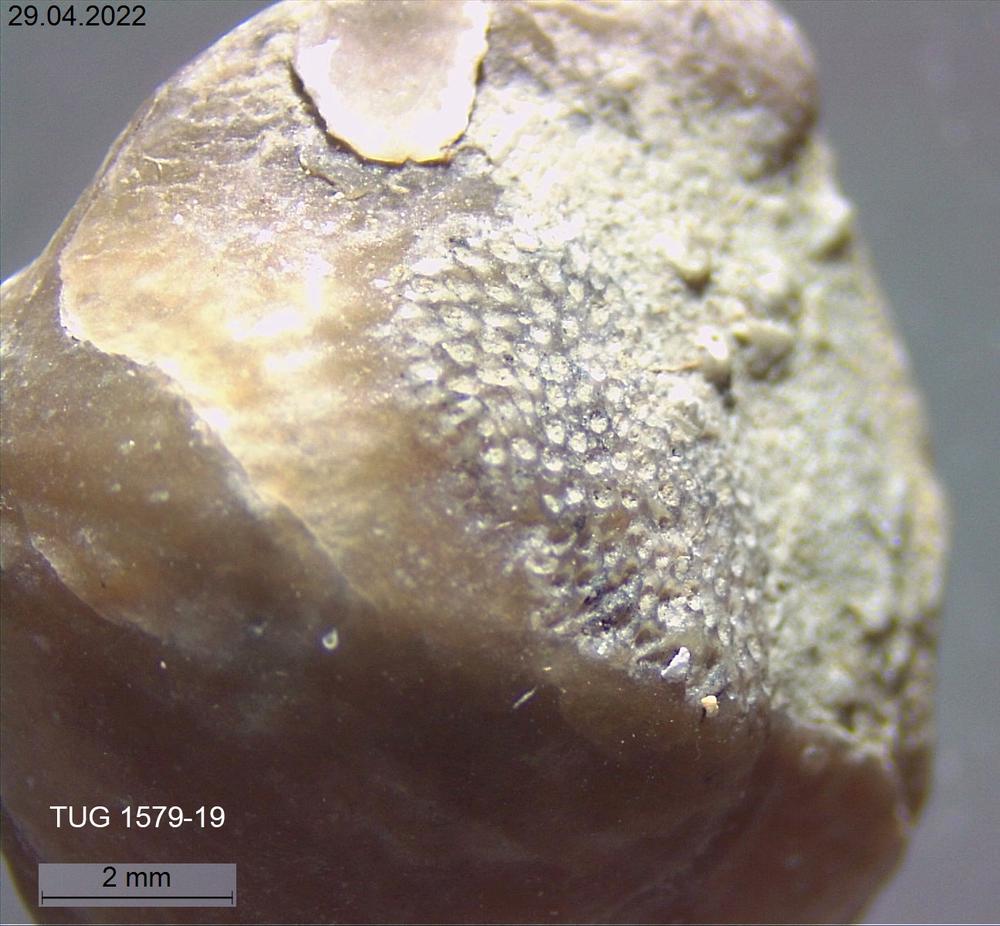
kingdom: Animalia
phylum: Brachiopoda
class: Rhynchonellata
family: Atrypidae
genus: Atrypa
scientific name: Atrypa
